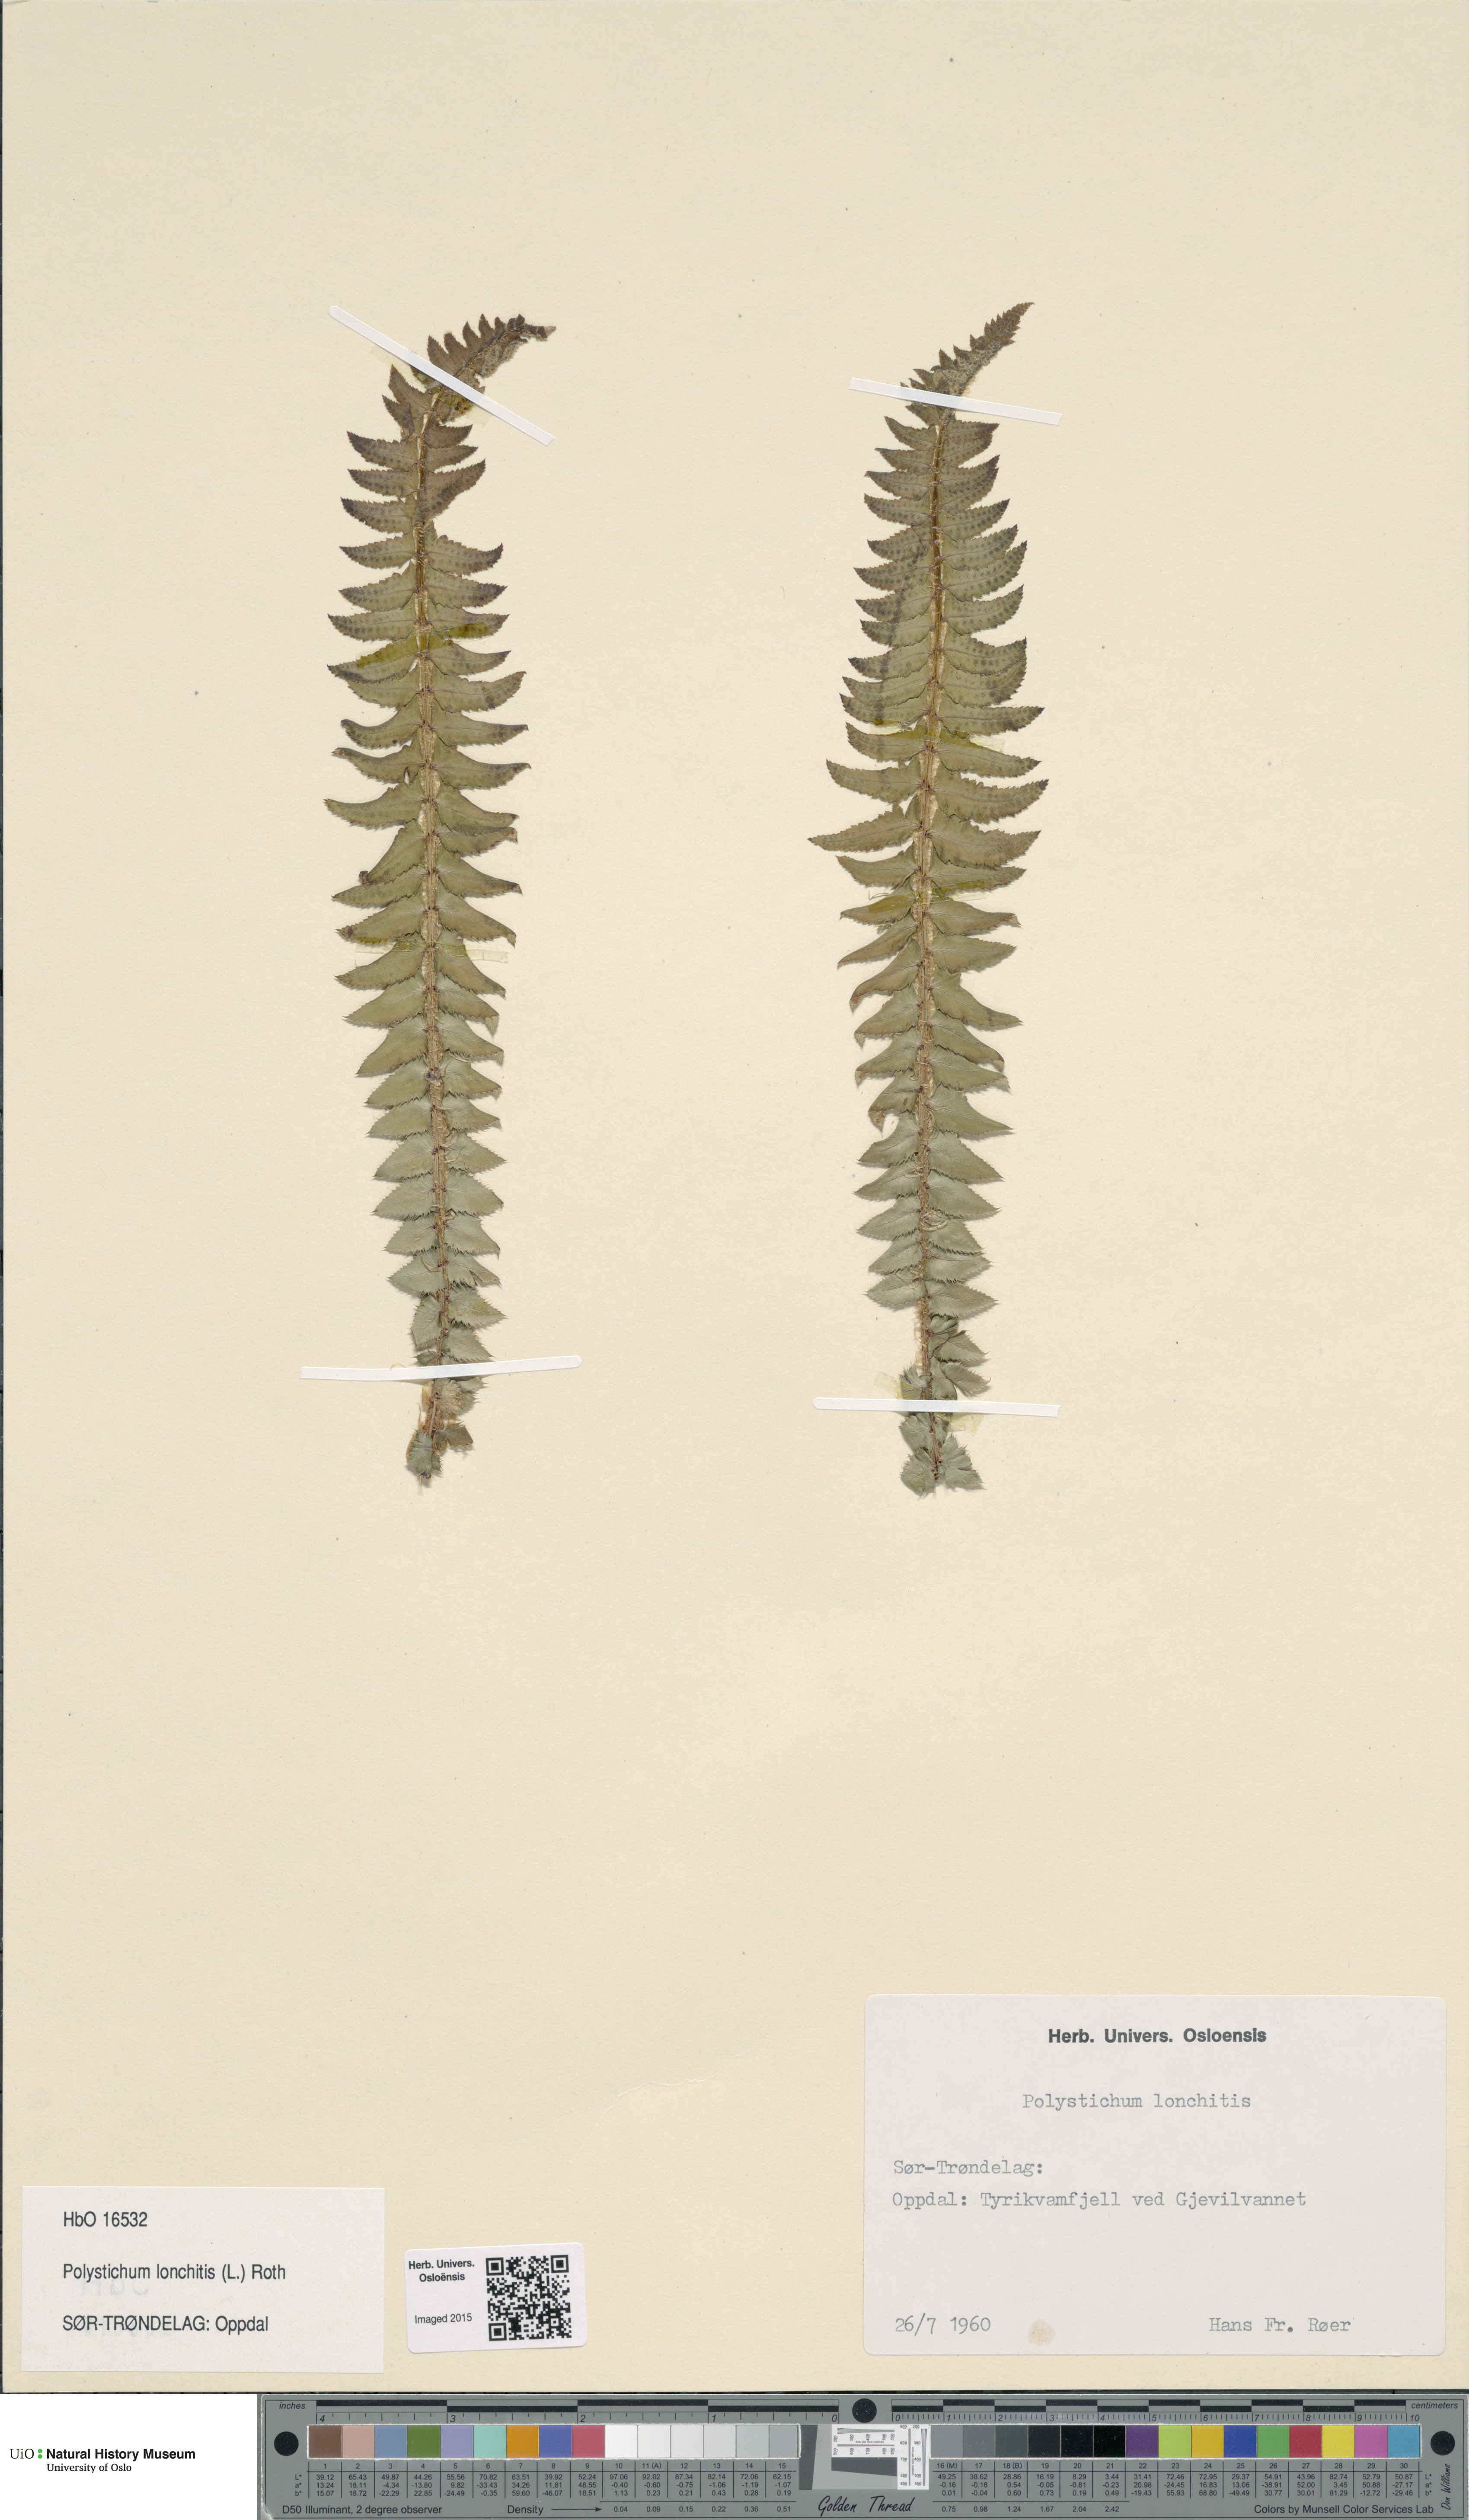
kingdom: Plantae
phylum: Tracheophyta
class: Polypodiopsida
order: Polypodiales
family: Dryopteridaceae
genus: Polystichum
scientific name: Polystichum lonchitis
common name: Holly fern
